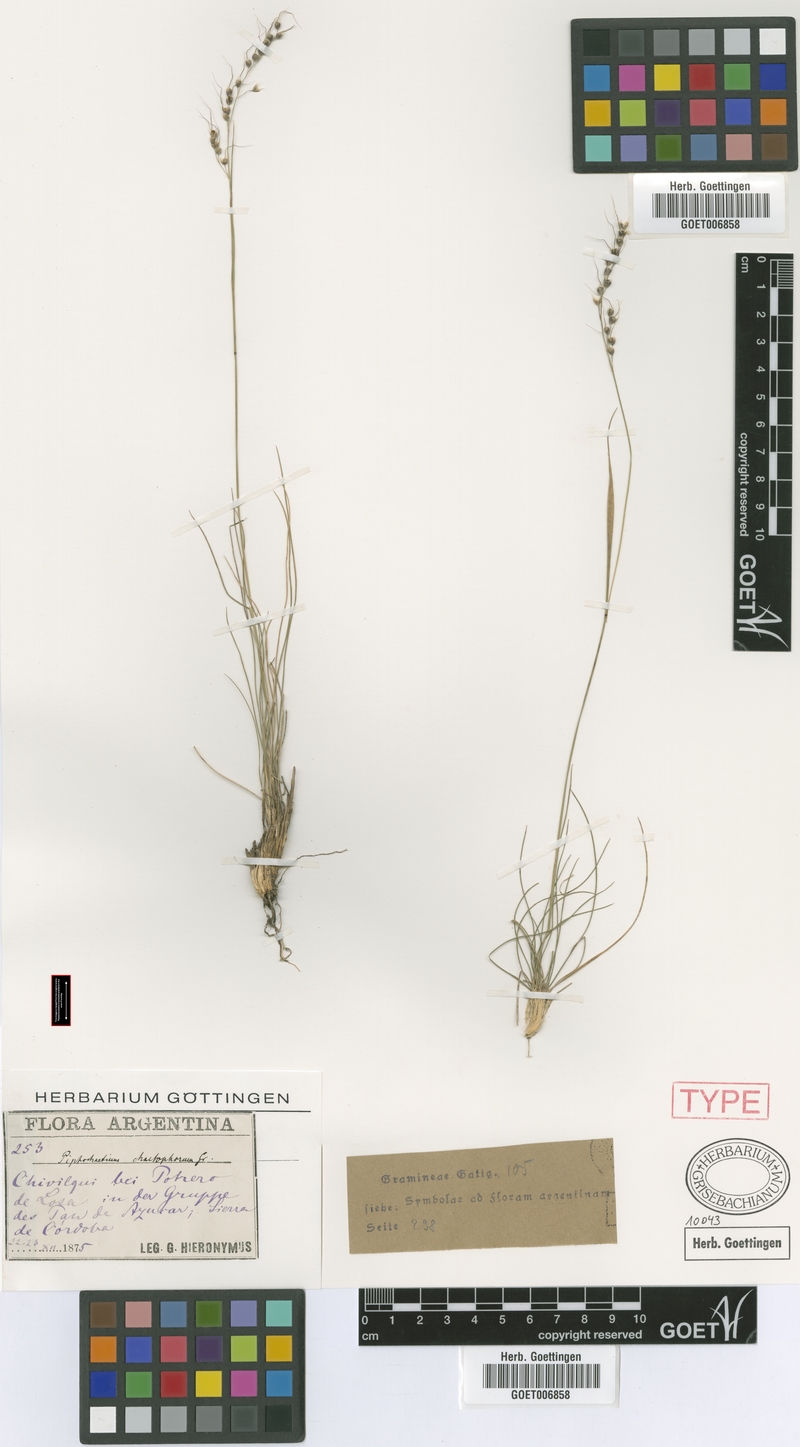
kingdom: Plantae
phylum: Tracheophyta
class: Liliopsida
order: Poales
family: Poaceae
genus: Piptochaetium
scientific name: Piptochaetium stipoides
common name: Purple speargrass
